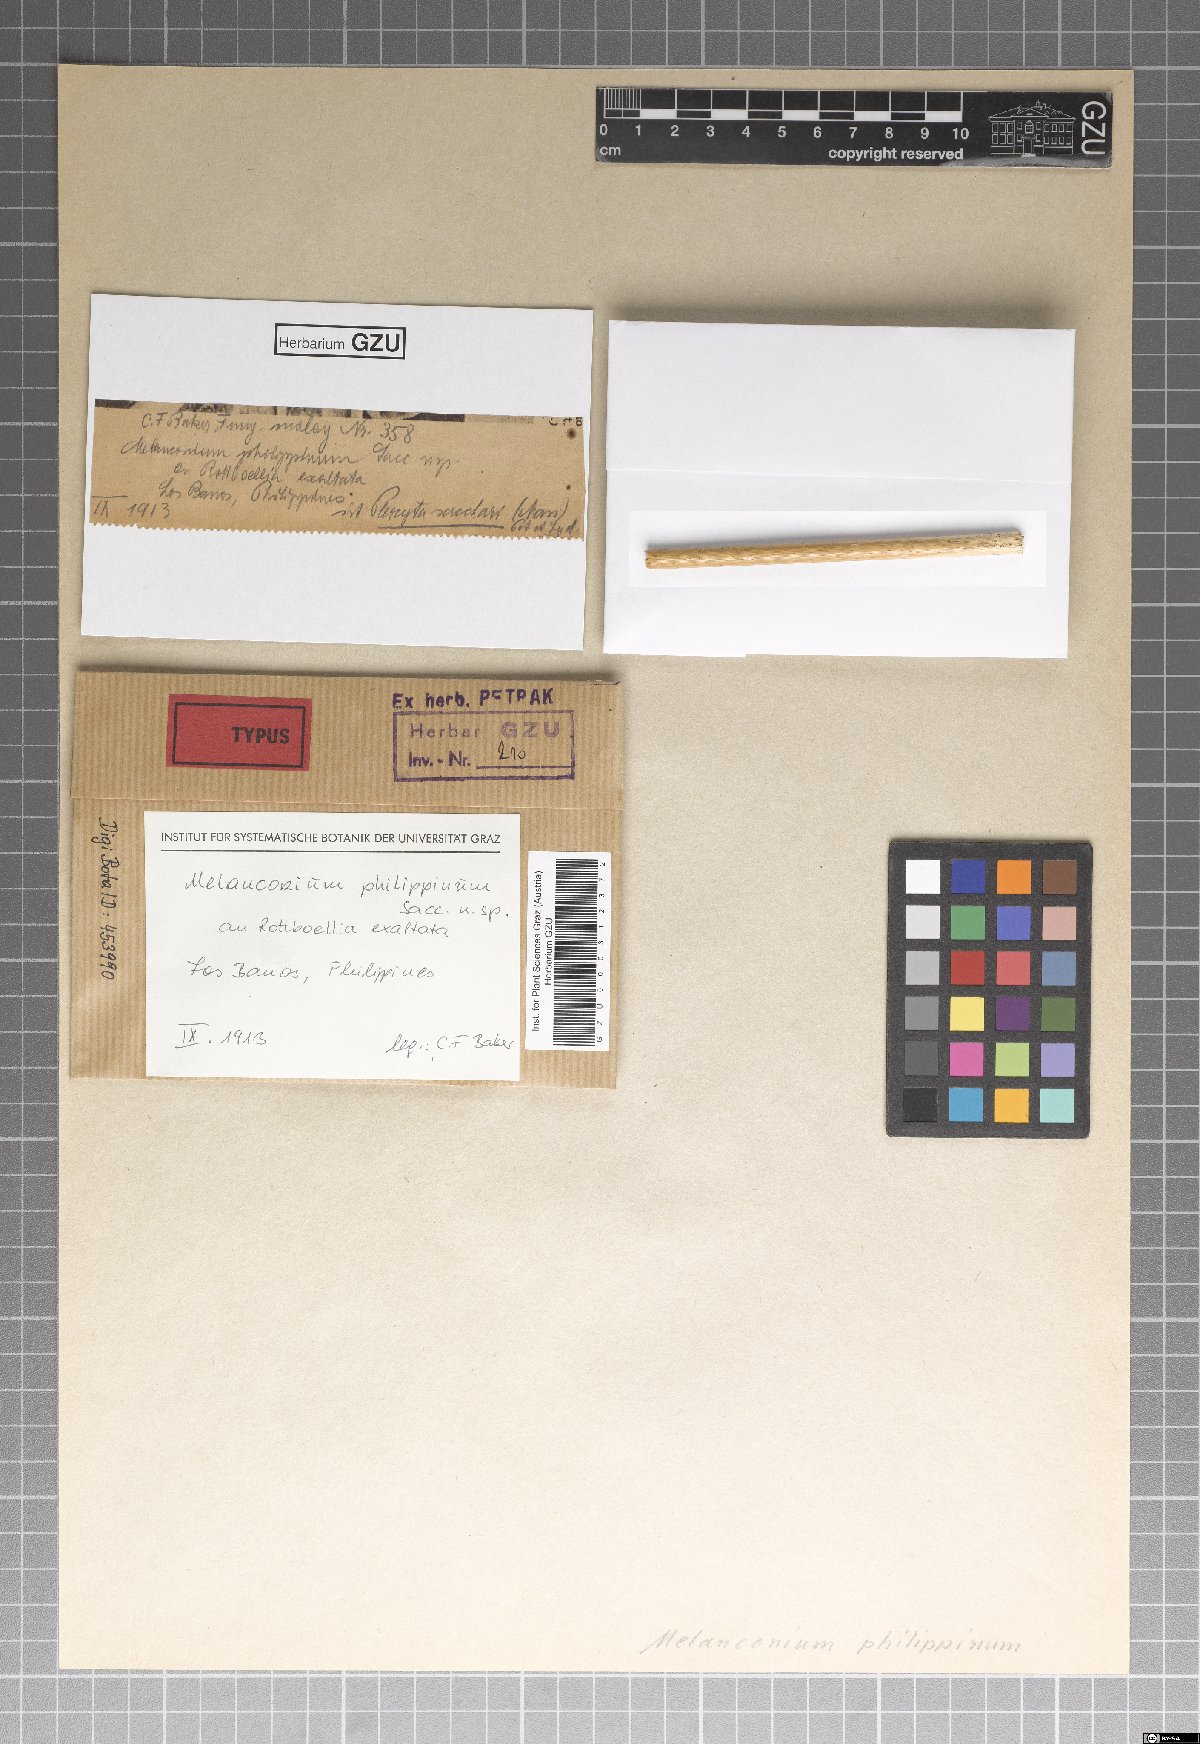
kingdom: Fungi
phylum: Ascomycota
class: Sordariomycetes
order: Diaporthales
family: Melanconidaceae
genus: Melanconium
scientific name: Melanconium philippinum
